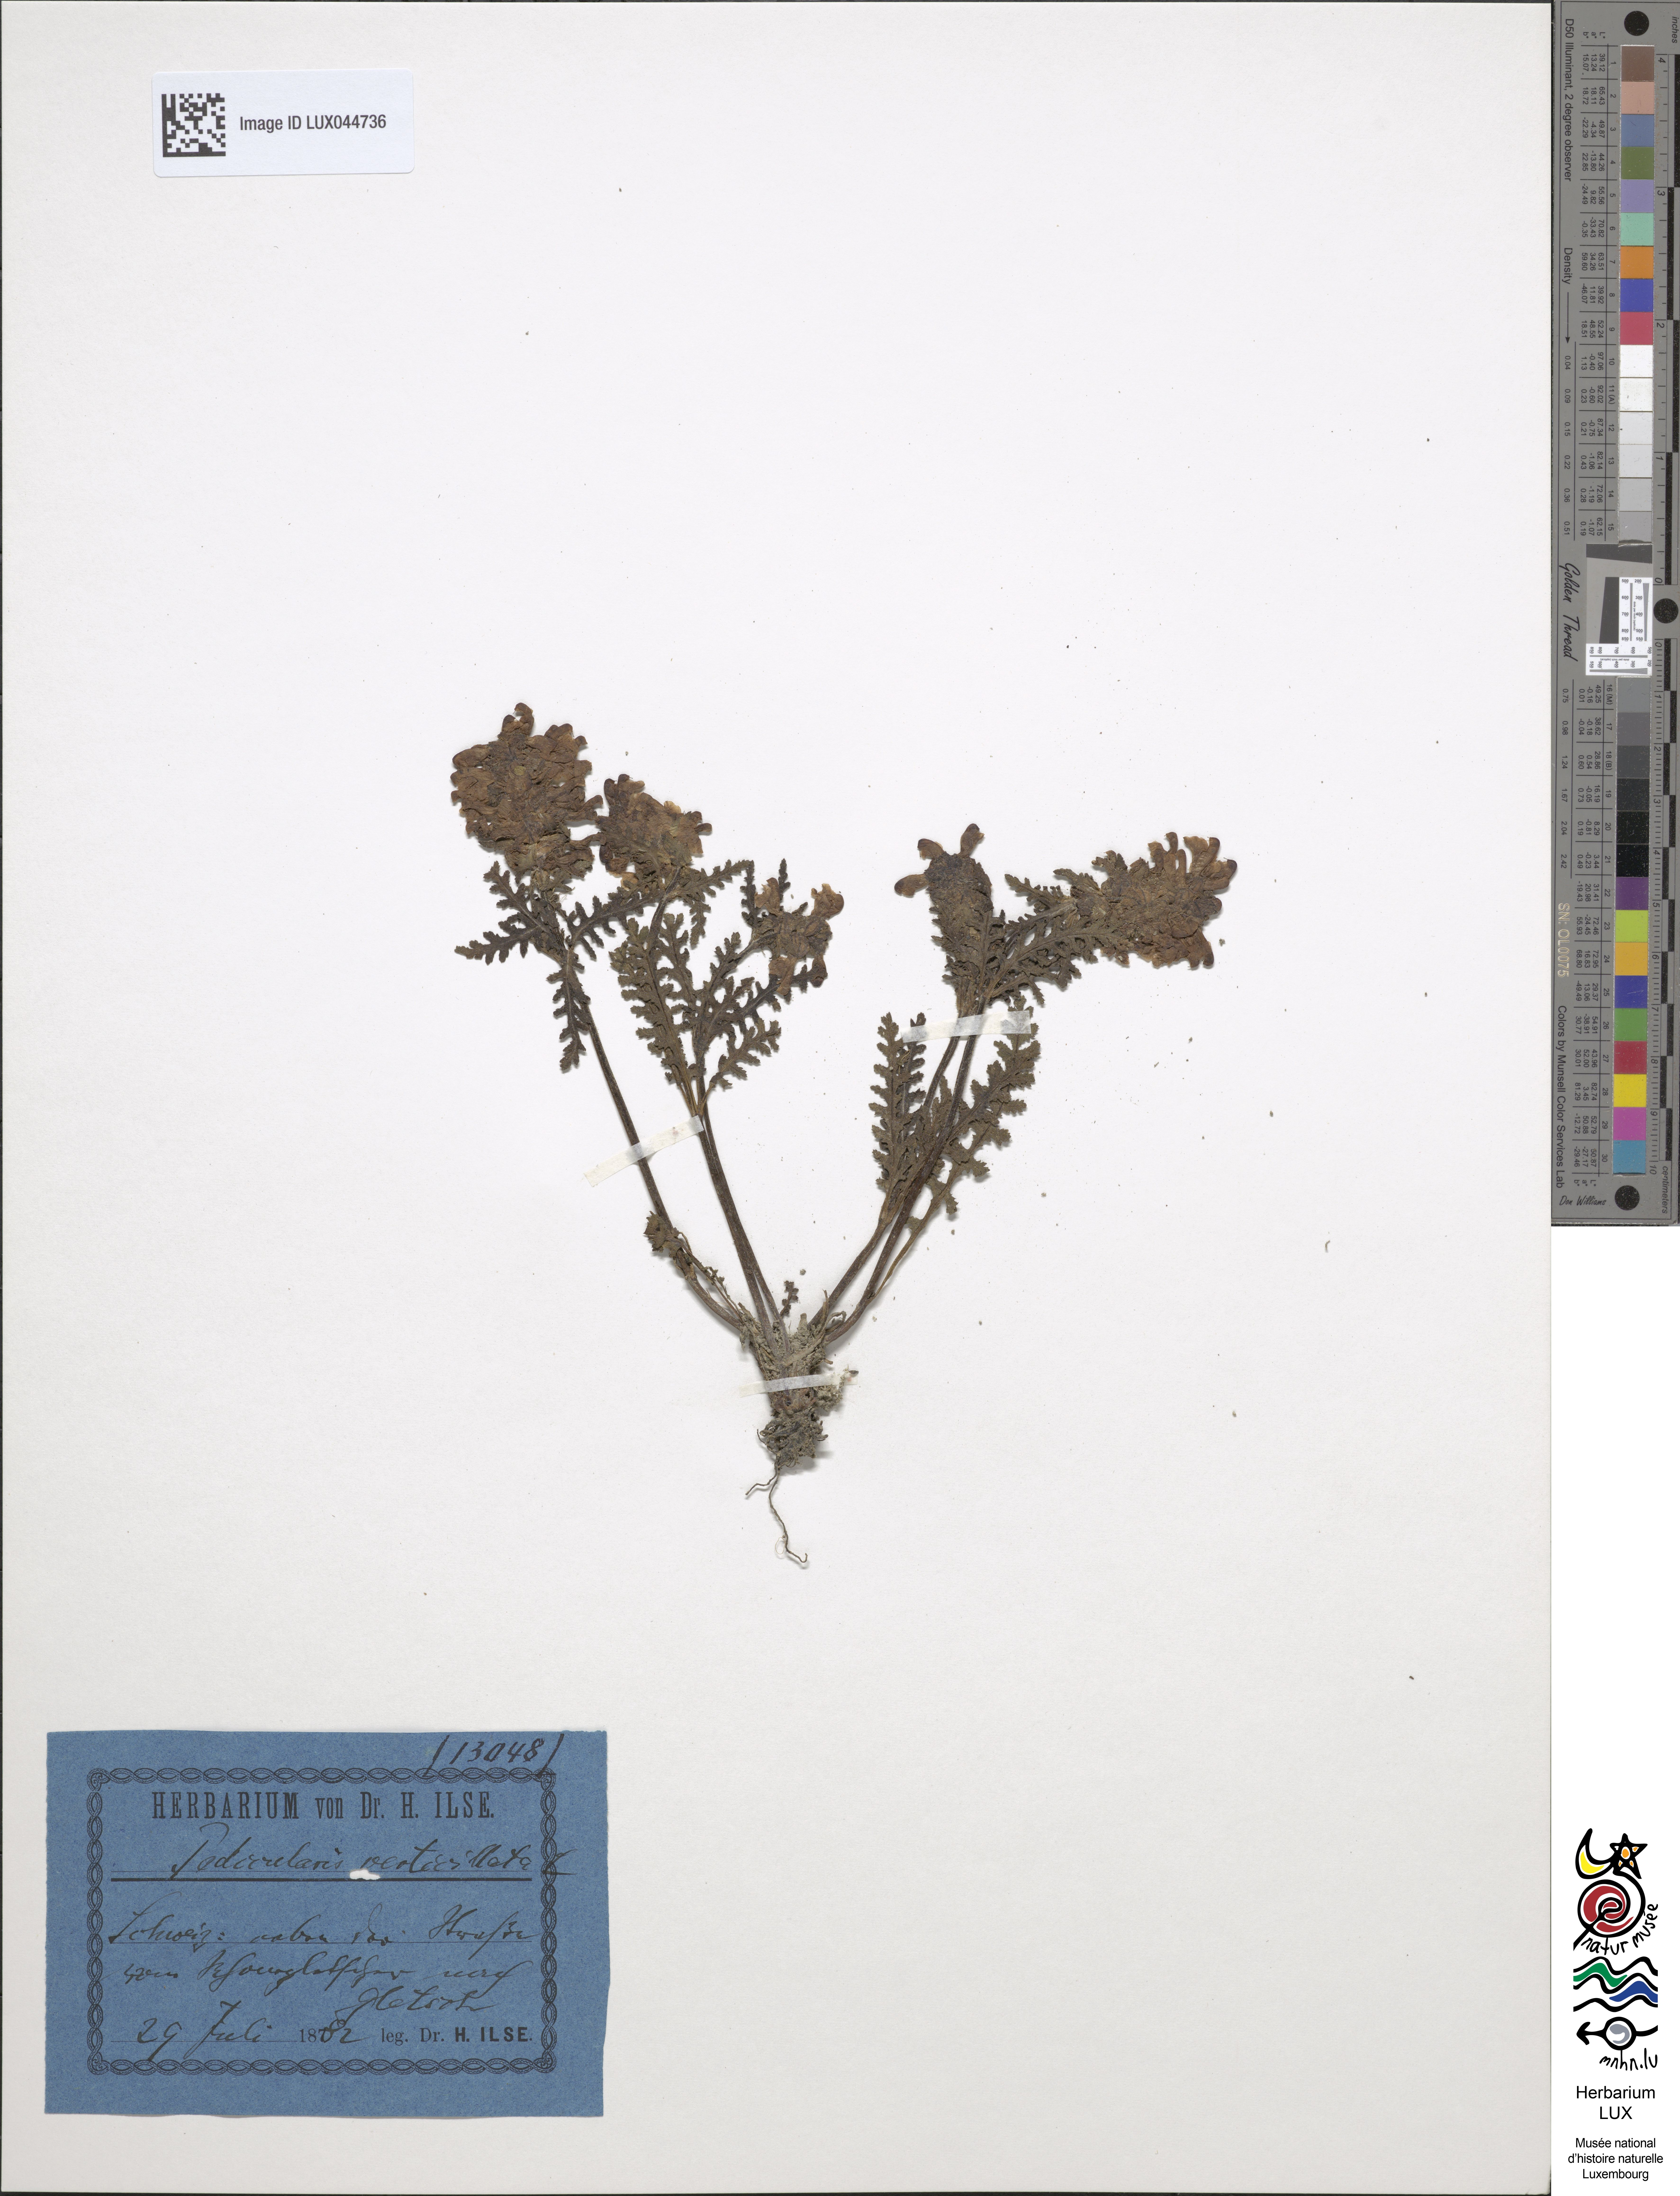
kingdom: Plantae
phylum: Tracheophyta
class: Magnoliopsida
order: Lamiales
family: Orobanchaceae
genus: Pedicularis
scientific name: Pedicularis verticillata
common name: Whorled lousewort
